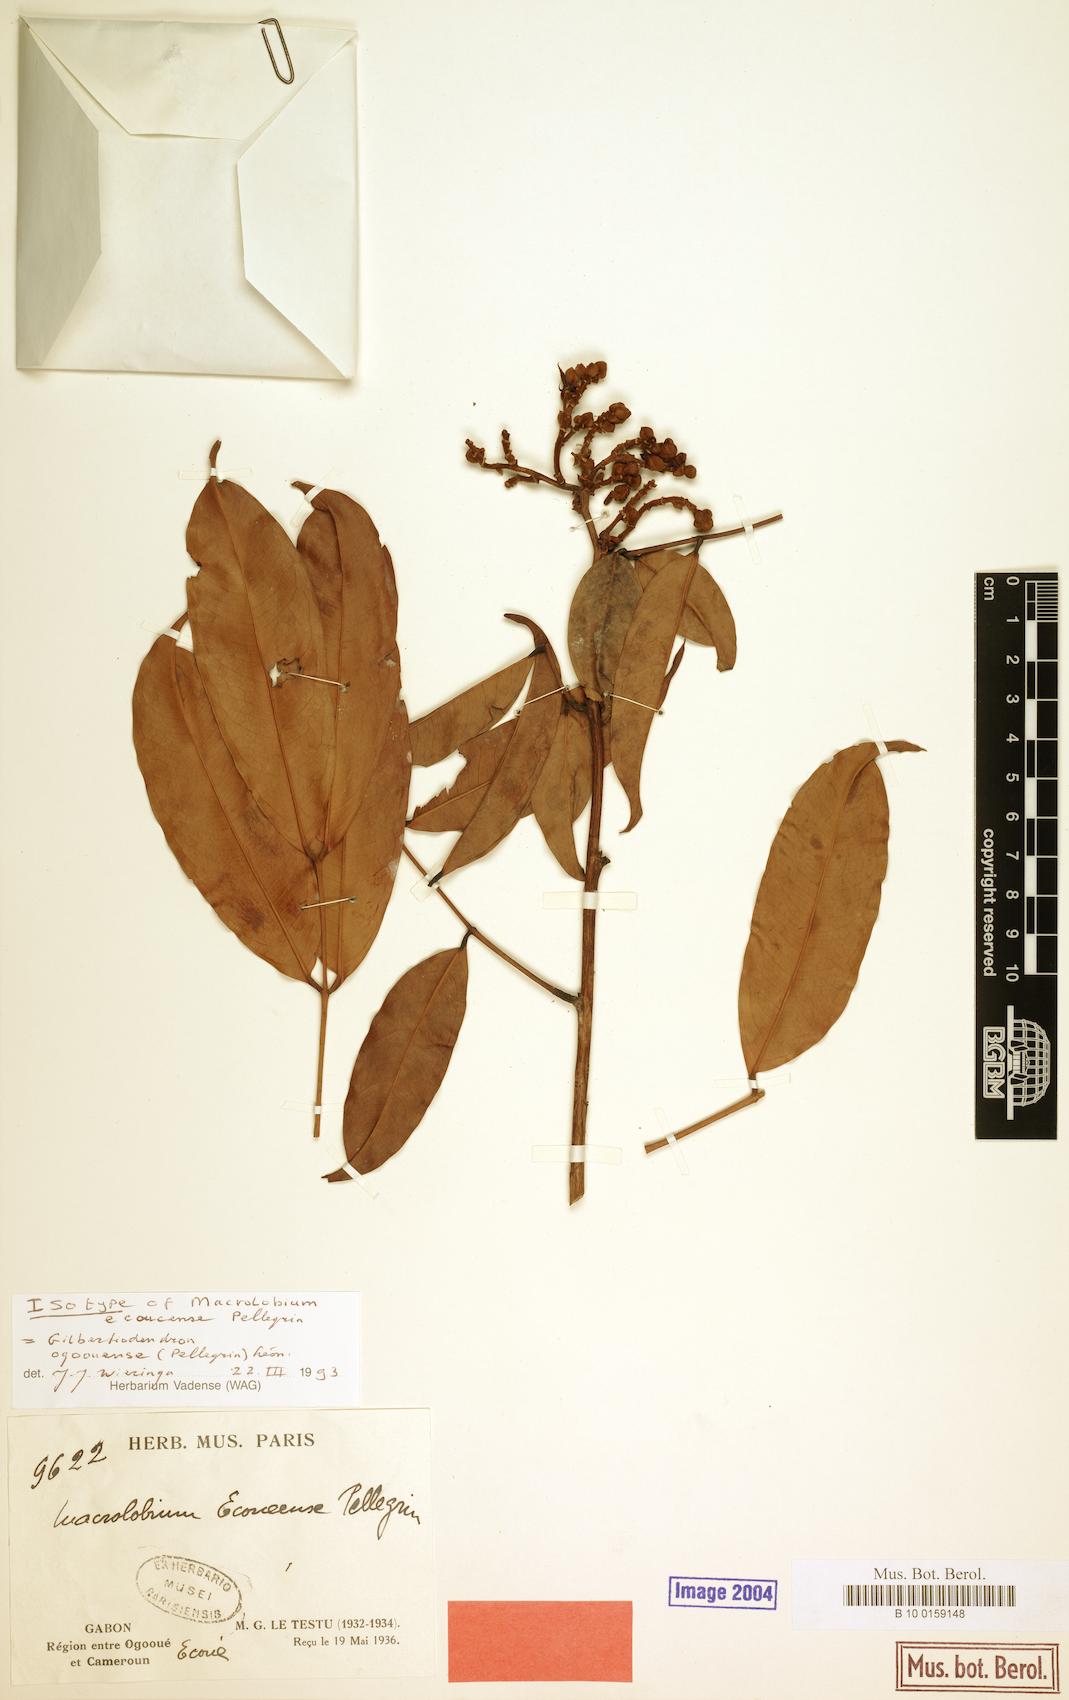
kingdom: Plantae
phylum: Tracheophyta
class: Magnoliopsida
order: Fabales
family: Fabaceae
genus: Gilbertiodendron
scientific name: Gilbertiodendron ogoouense
